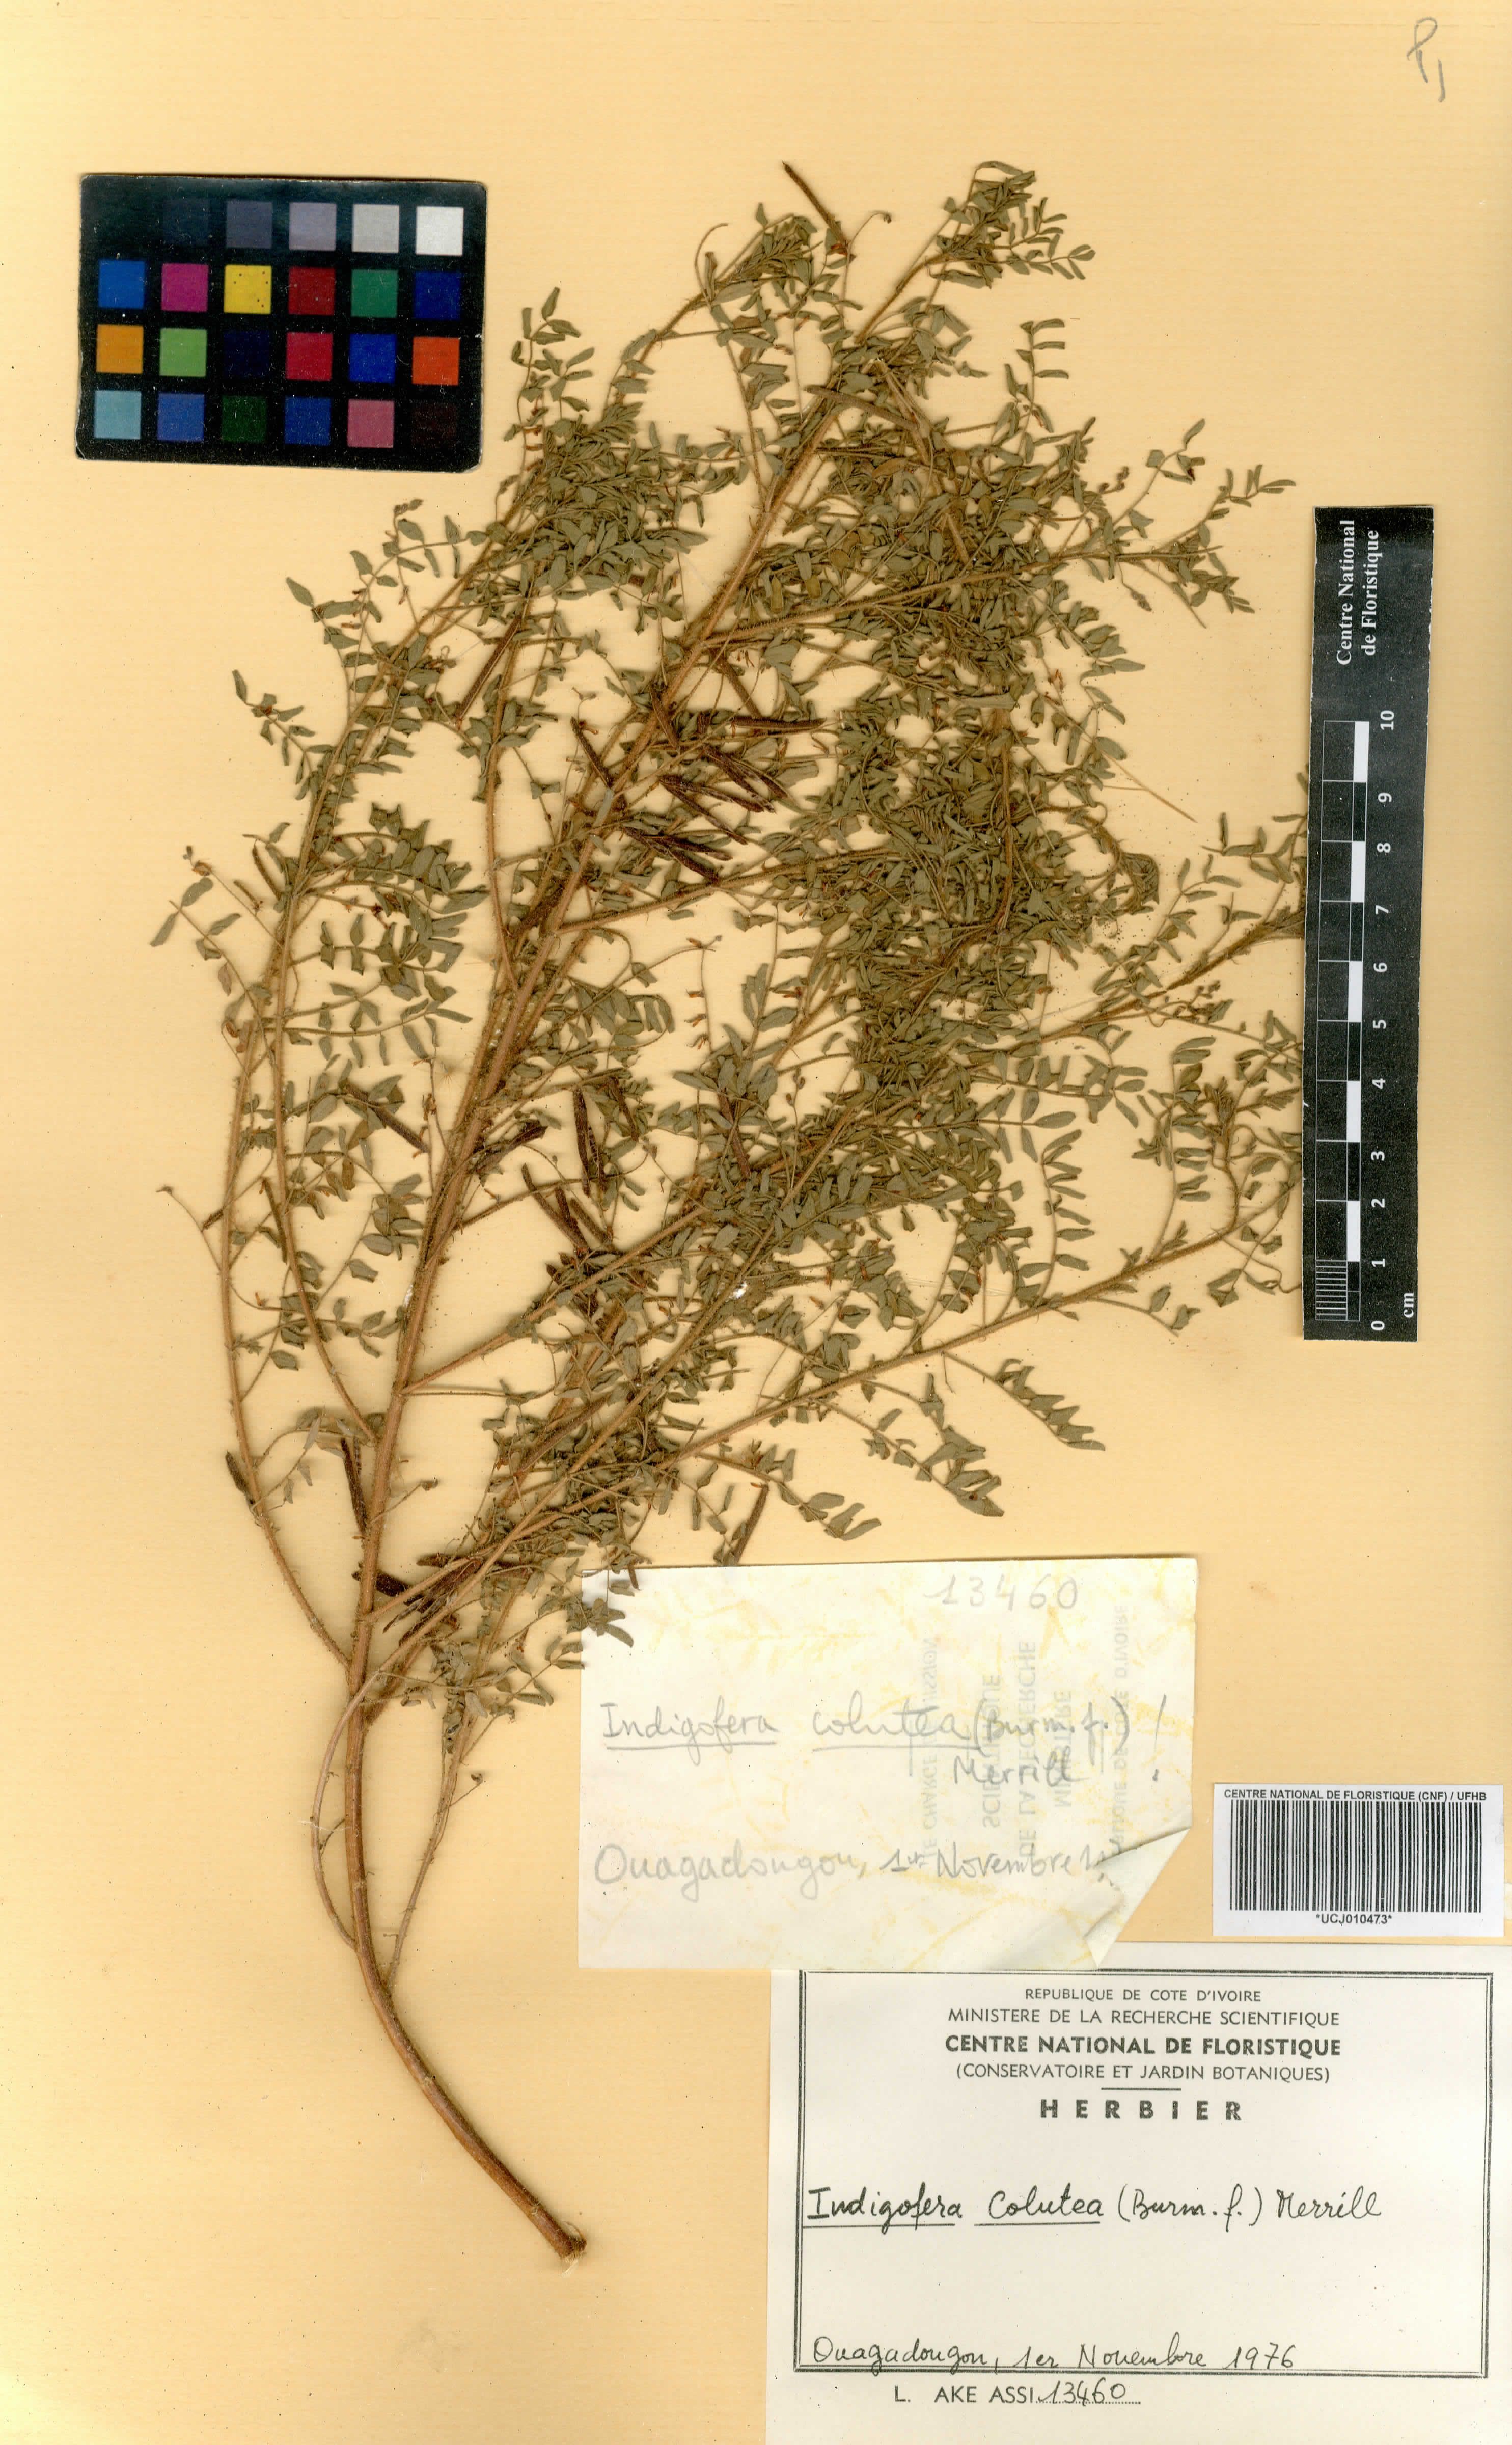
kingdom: Plantae
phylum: Tracheophyta
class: Magnoliopsida
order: Fabales
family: Fabaceae
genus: Indigofera
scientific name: Indigofera colutea
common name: Rusty indigo
